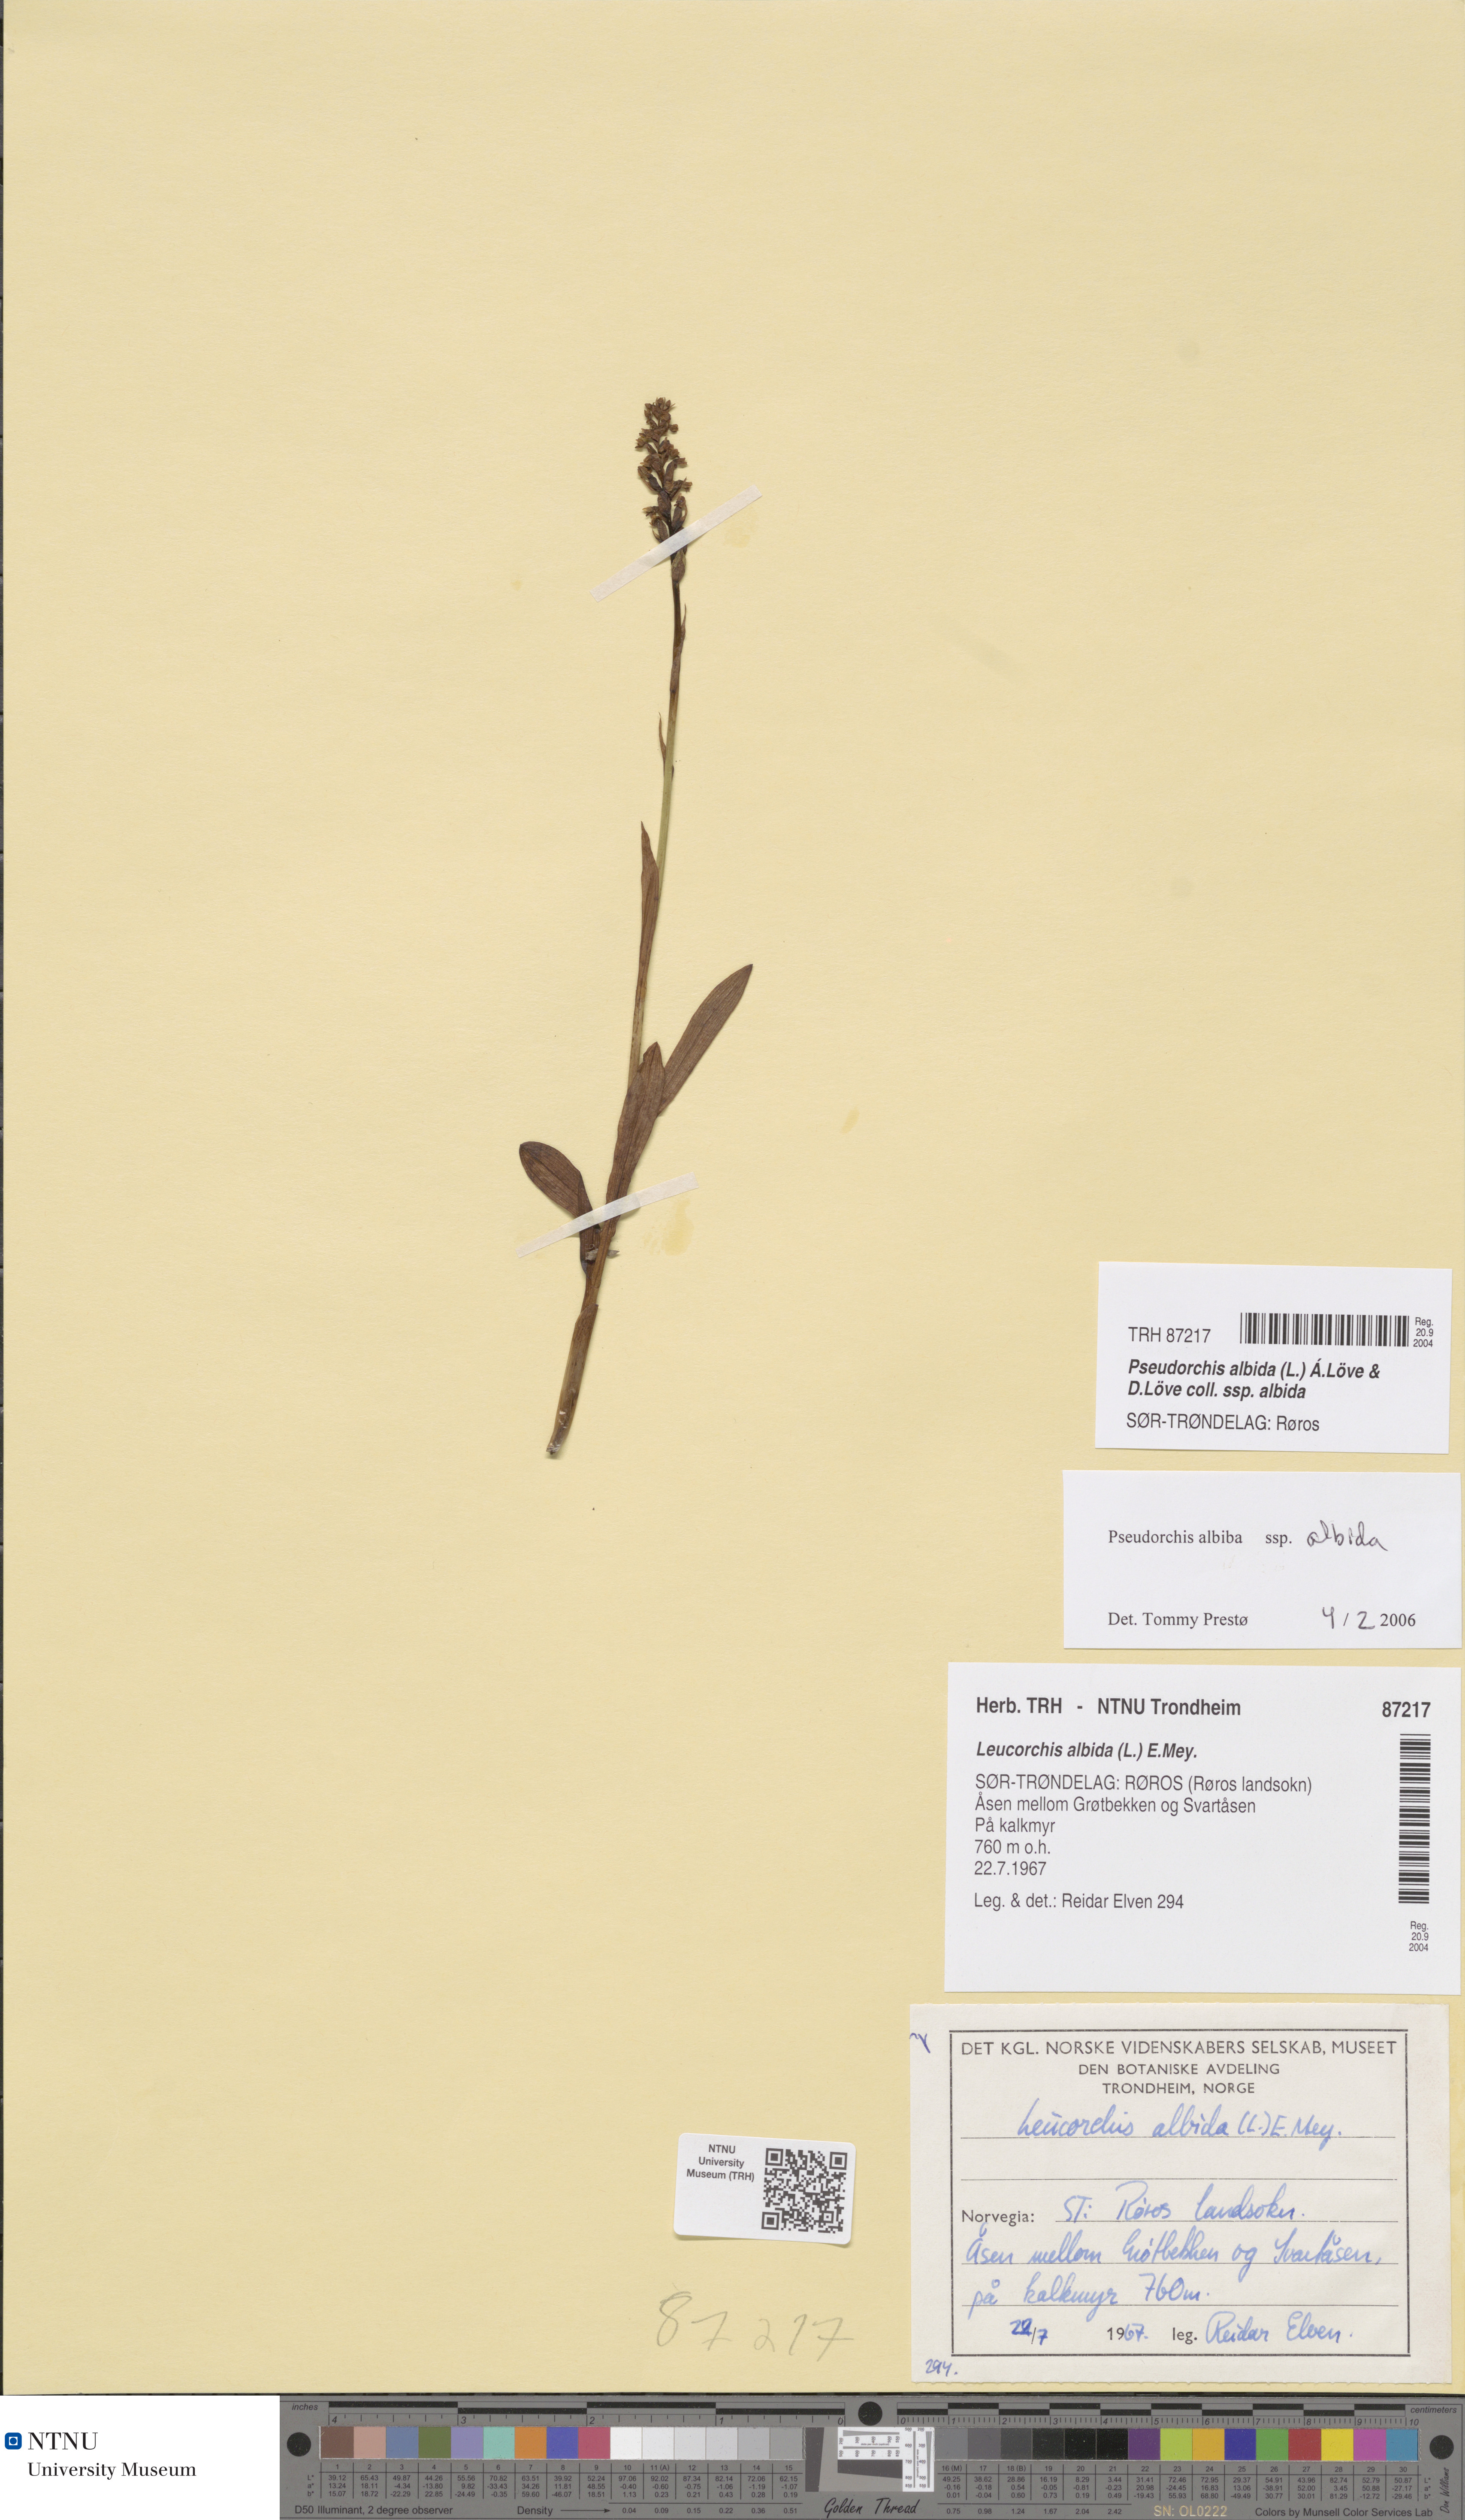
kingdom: Plantae
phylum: Tracheophyta
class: Liliopsida
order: Asparagales
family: Orchidaceae
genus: Pseudorchis
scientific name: Pseudorchis albida
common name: Small-white orchid
